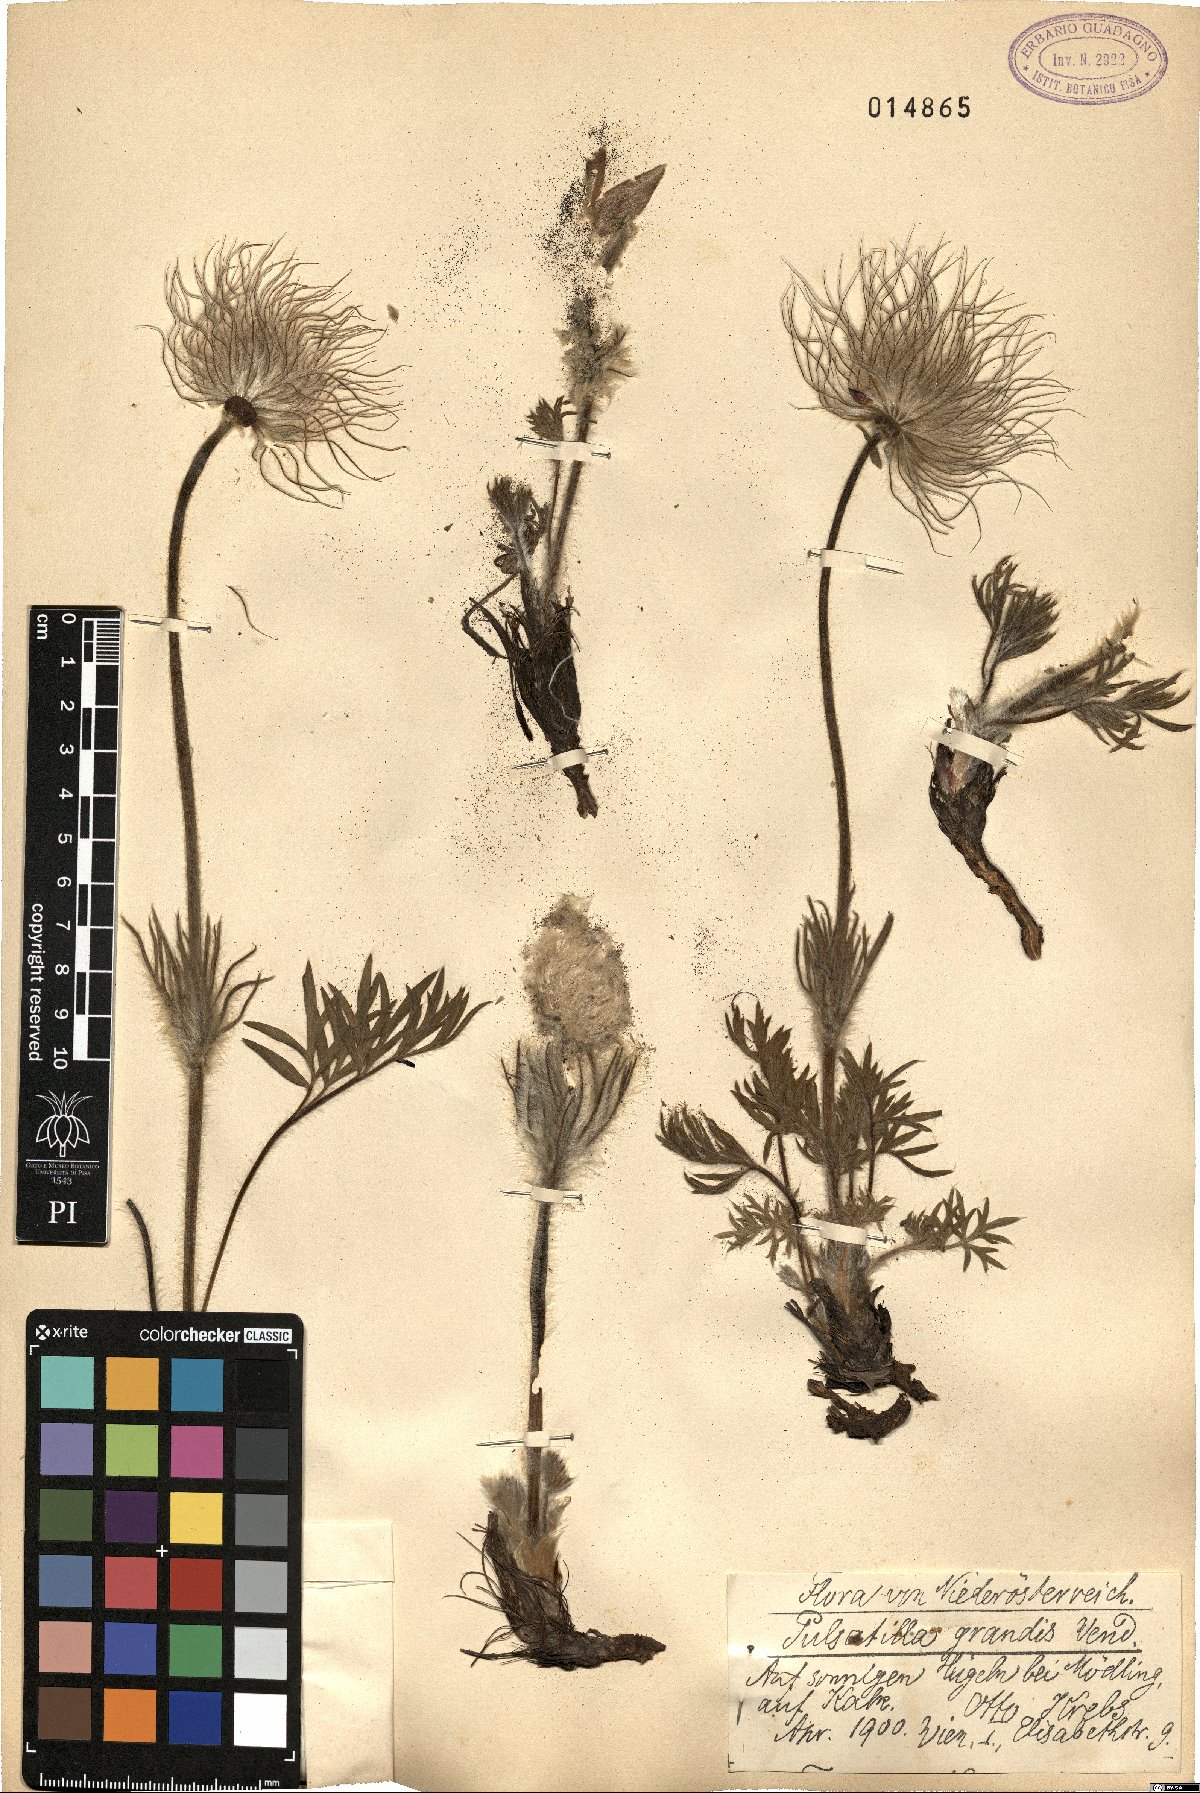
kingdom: Plantae
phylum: Tracheophyta
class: Magnoliopsida
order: Ranunculales
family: Ranunculaceae
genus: Pulsatilla
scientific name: Pulsatilla grandis
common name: Greater pasque flower
